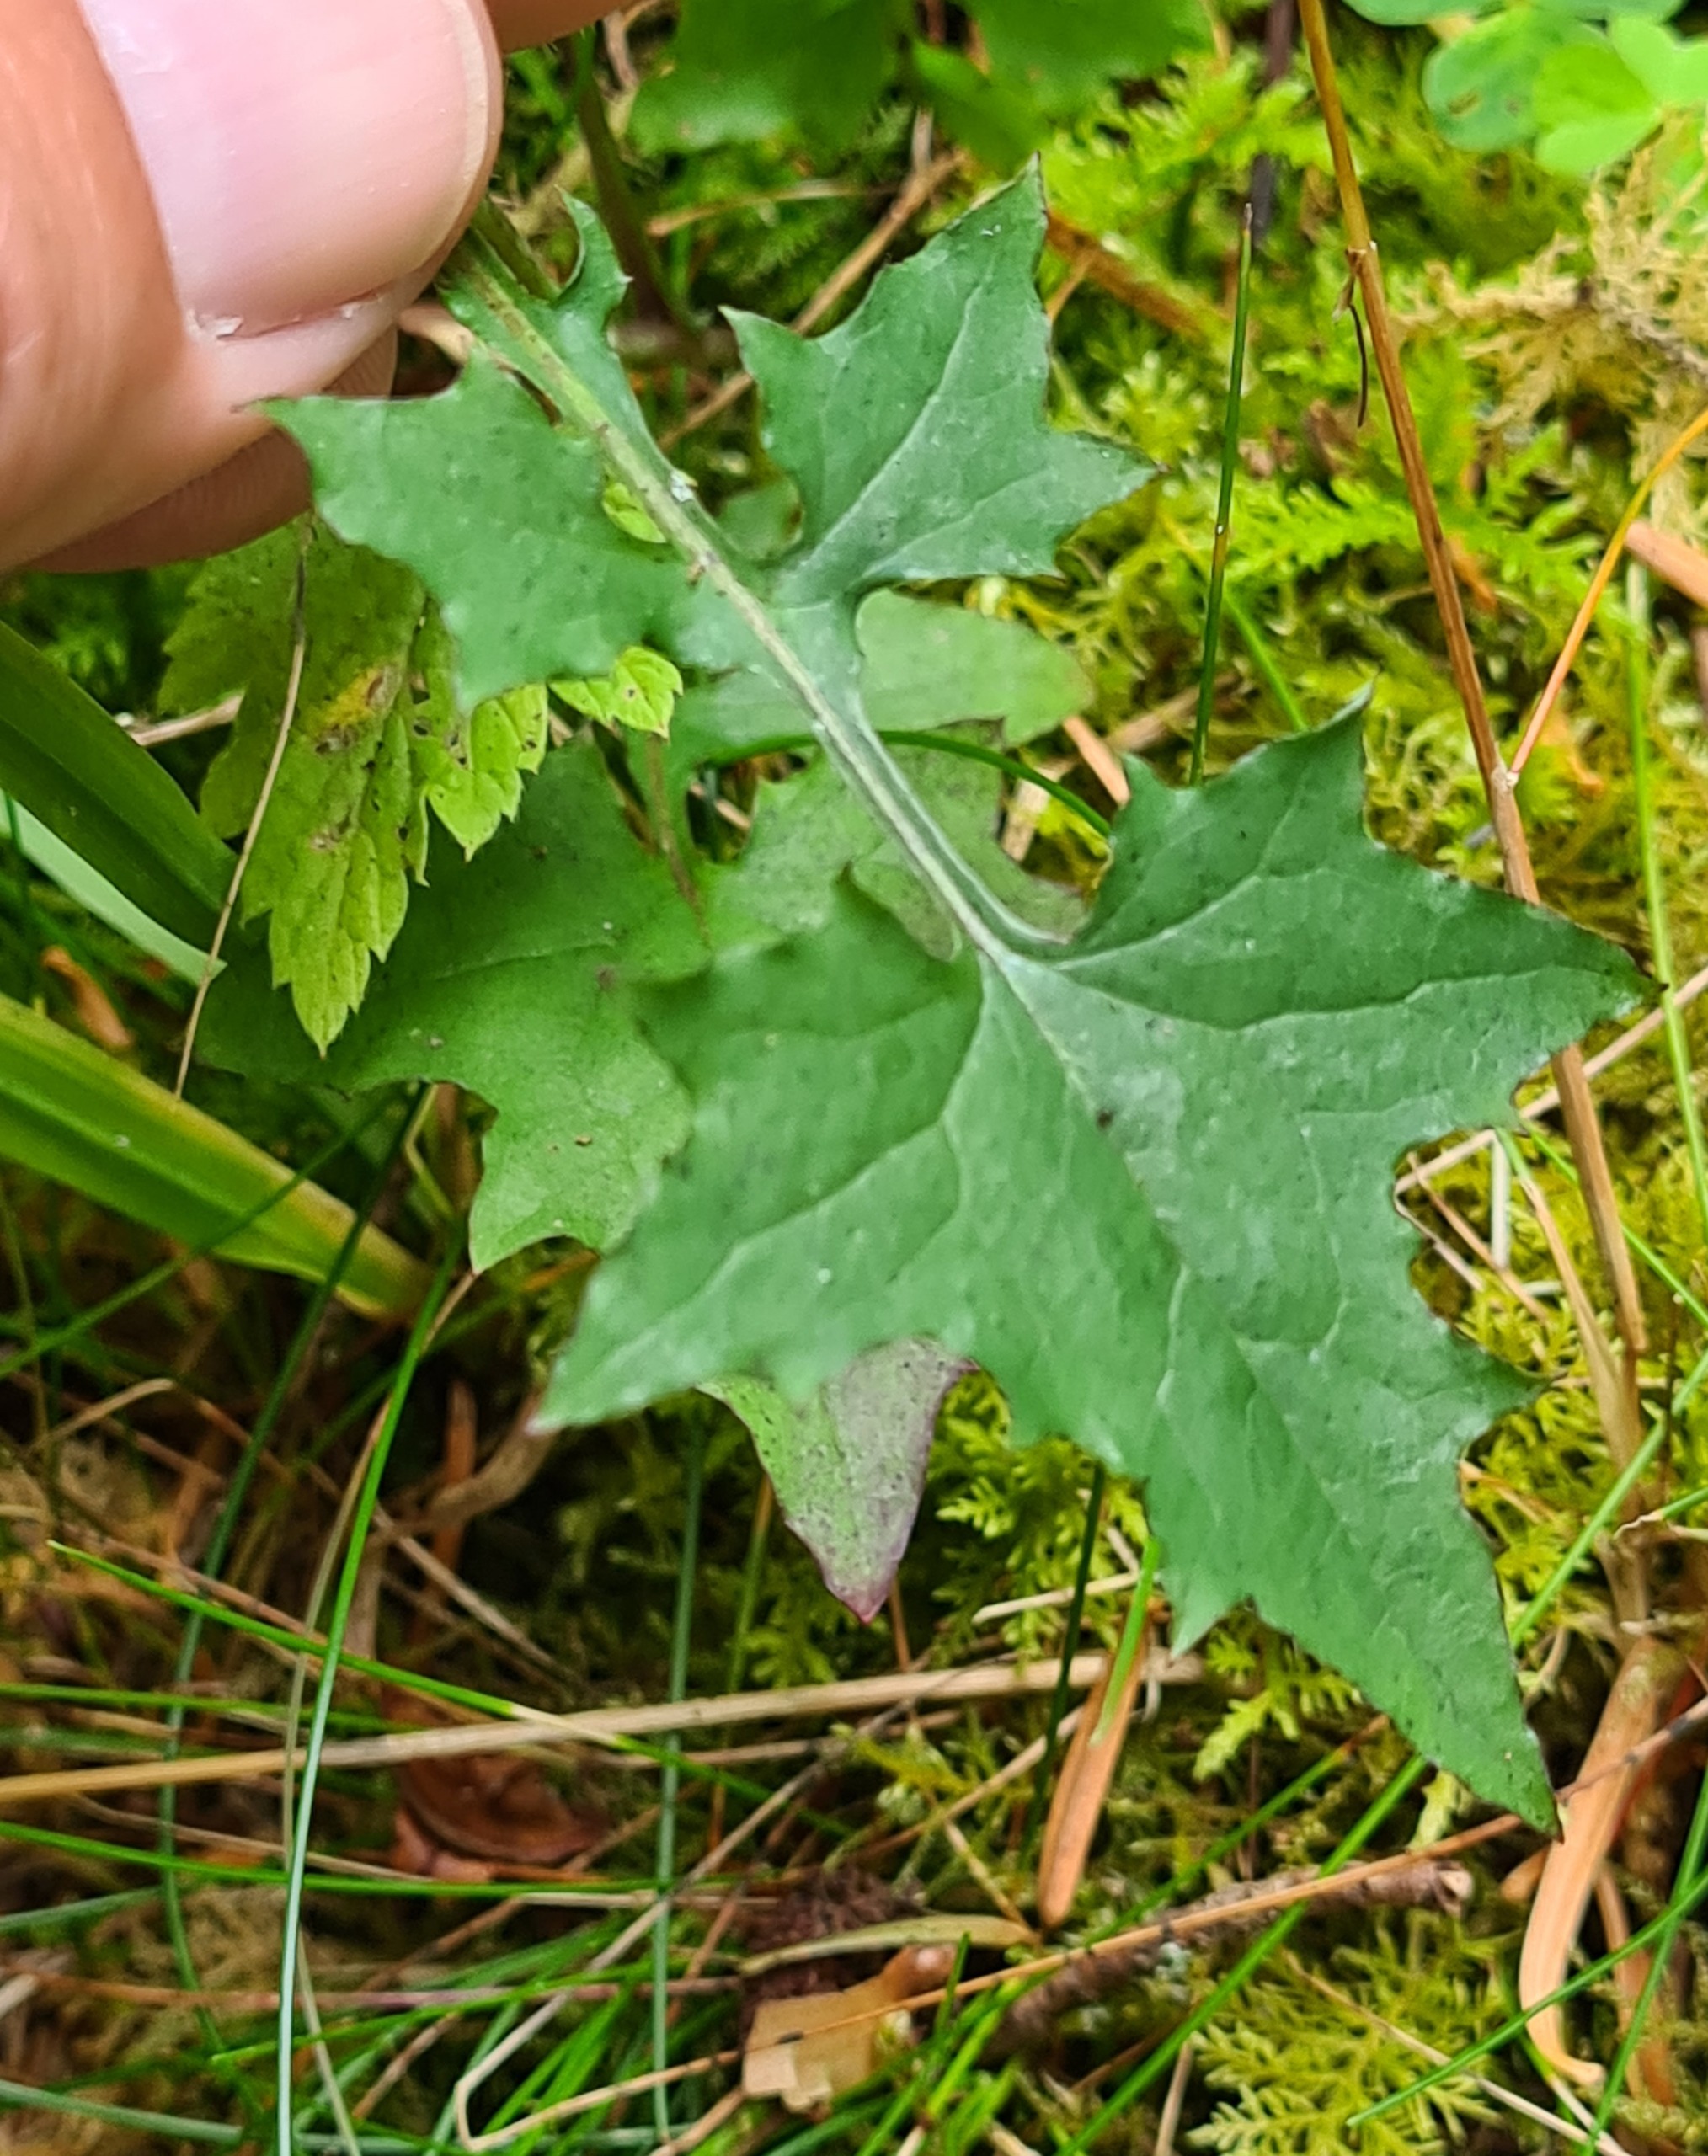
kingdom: Plantae
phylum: Tracheophyta
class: Magnoliopsida
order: Asterales
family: Asteraceae
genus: Mycelis
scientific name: Mycelis muralis
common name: Skov-salat
